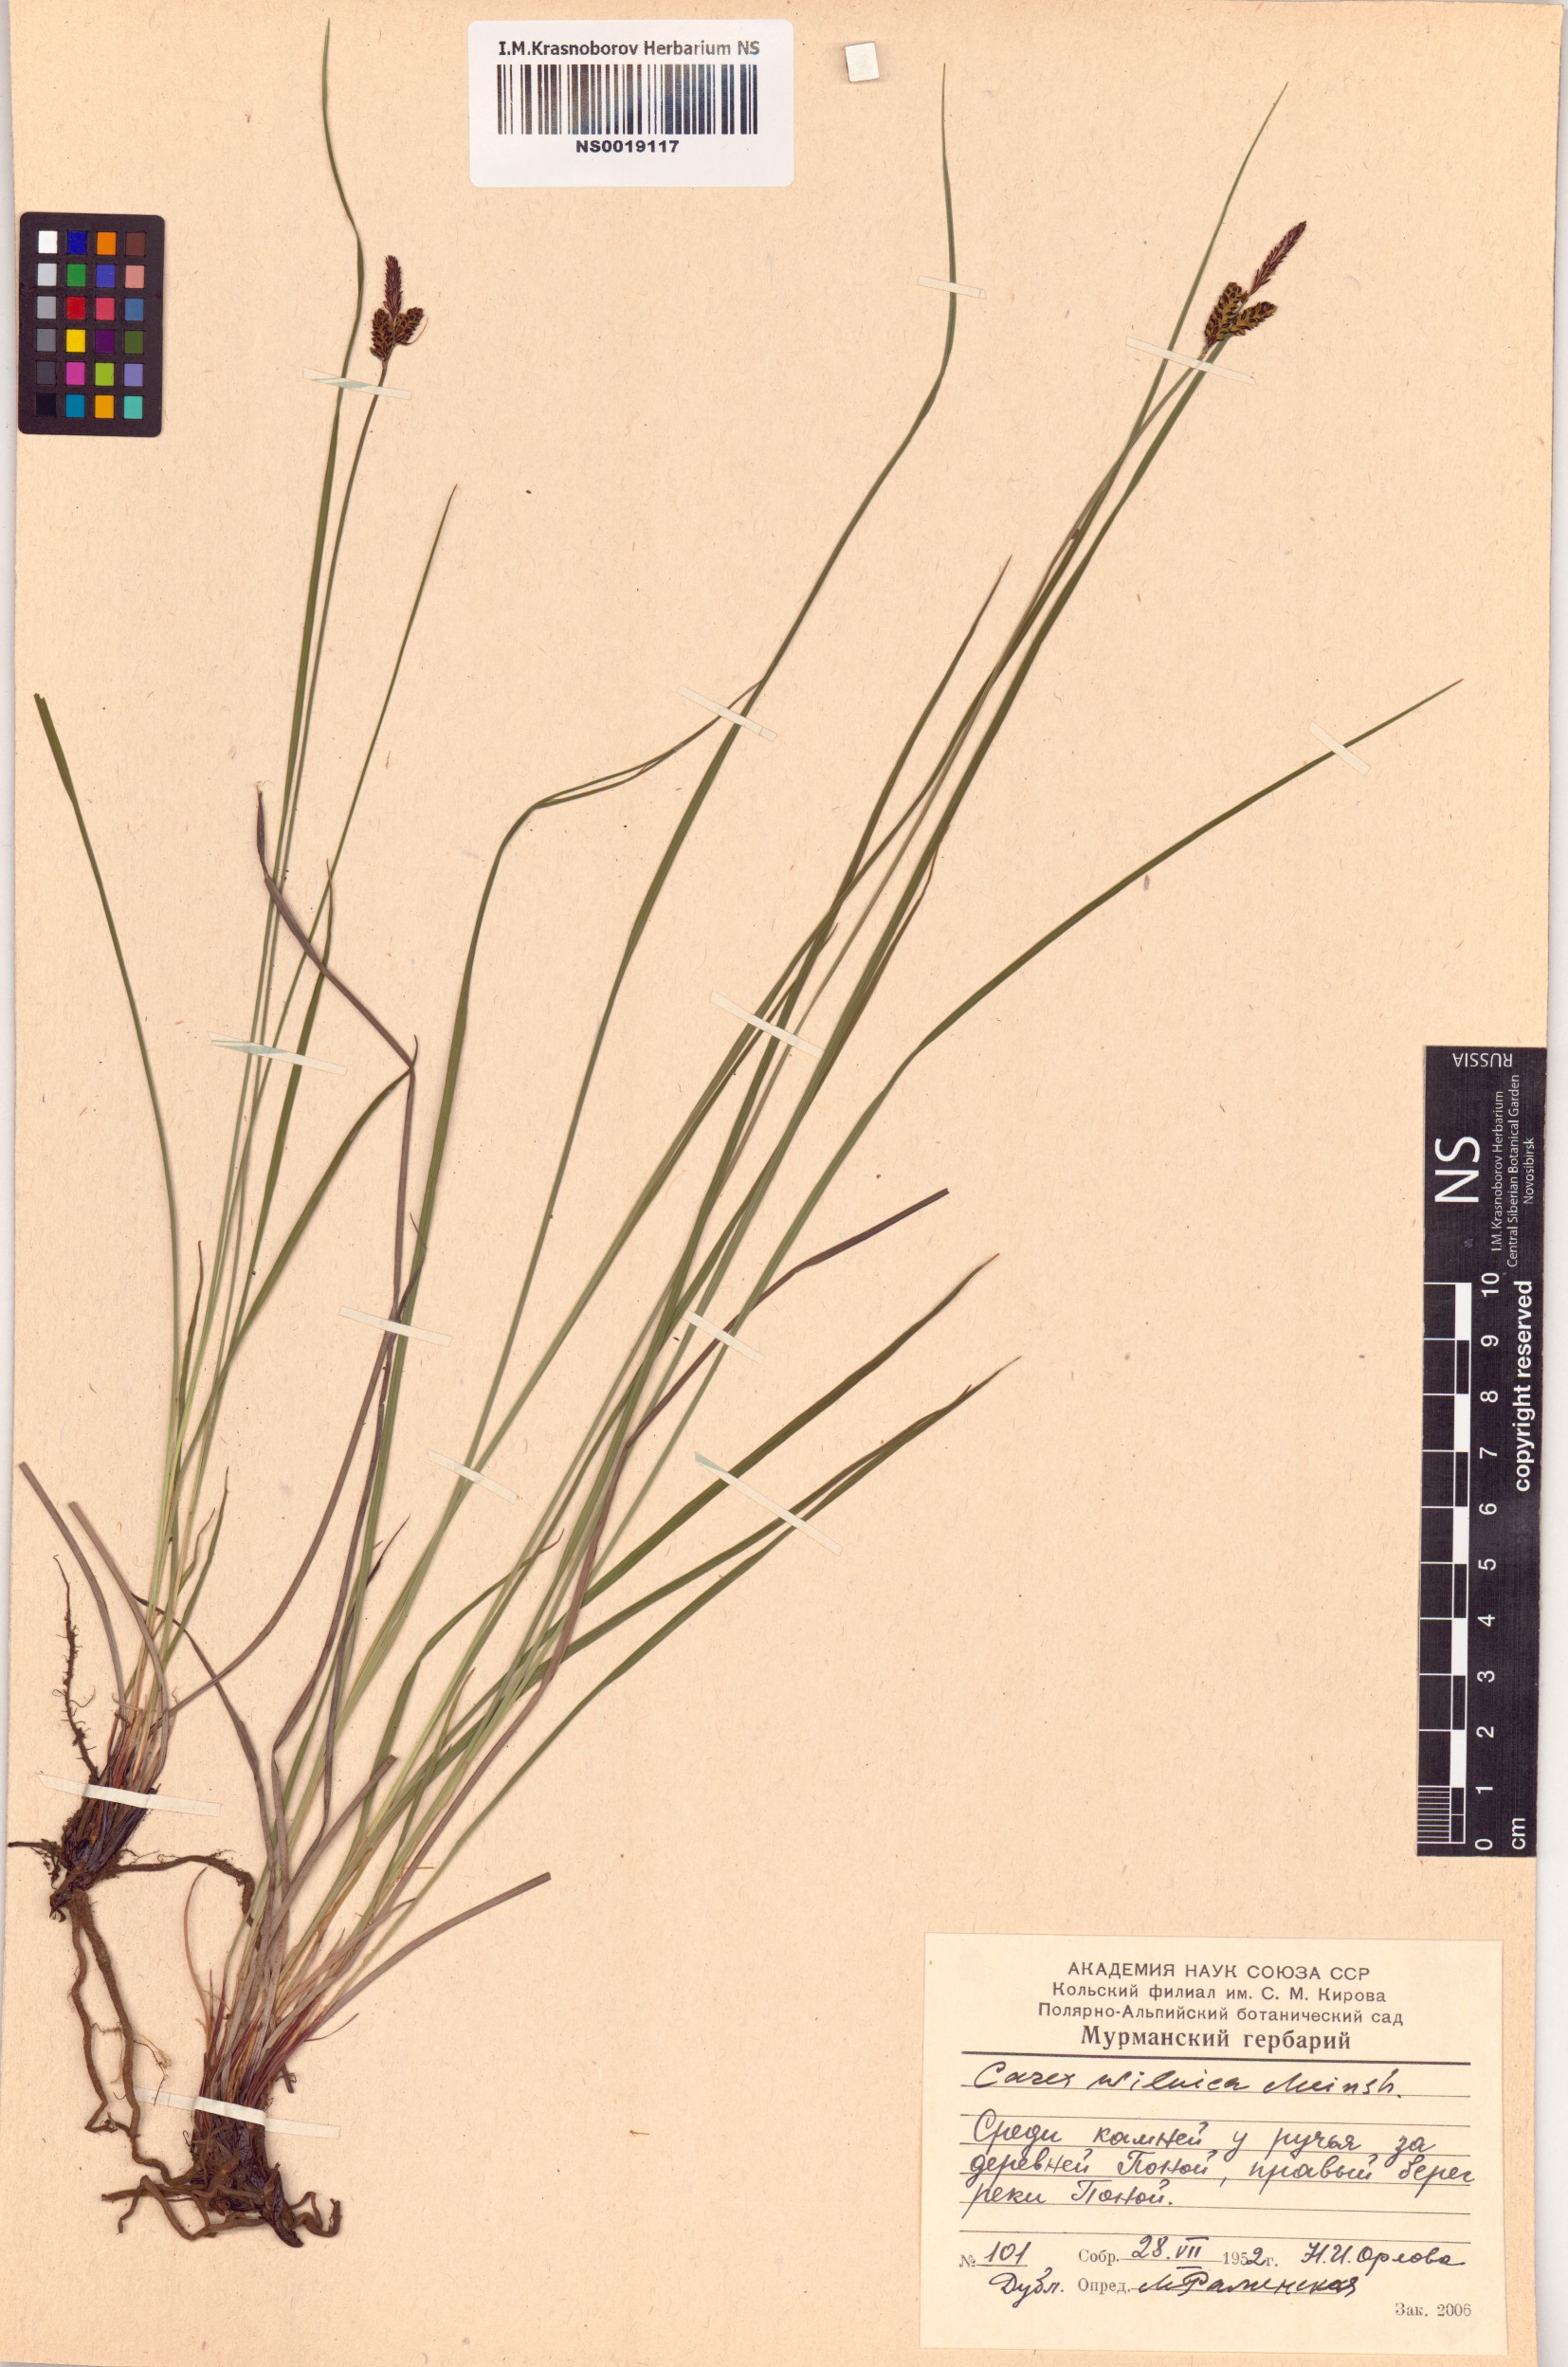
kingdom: Plantae
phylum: Tracheophyta
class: Liliopsida
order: Poales
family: Cyperaceae
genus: Carex
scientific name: Carex nigra
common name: Common sedge
